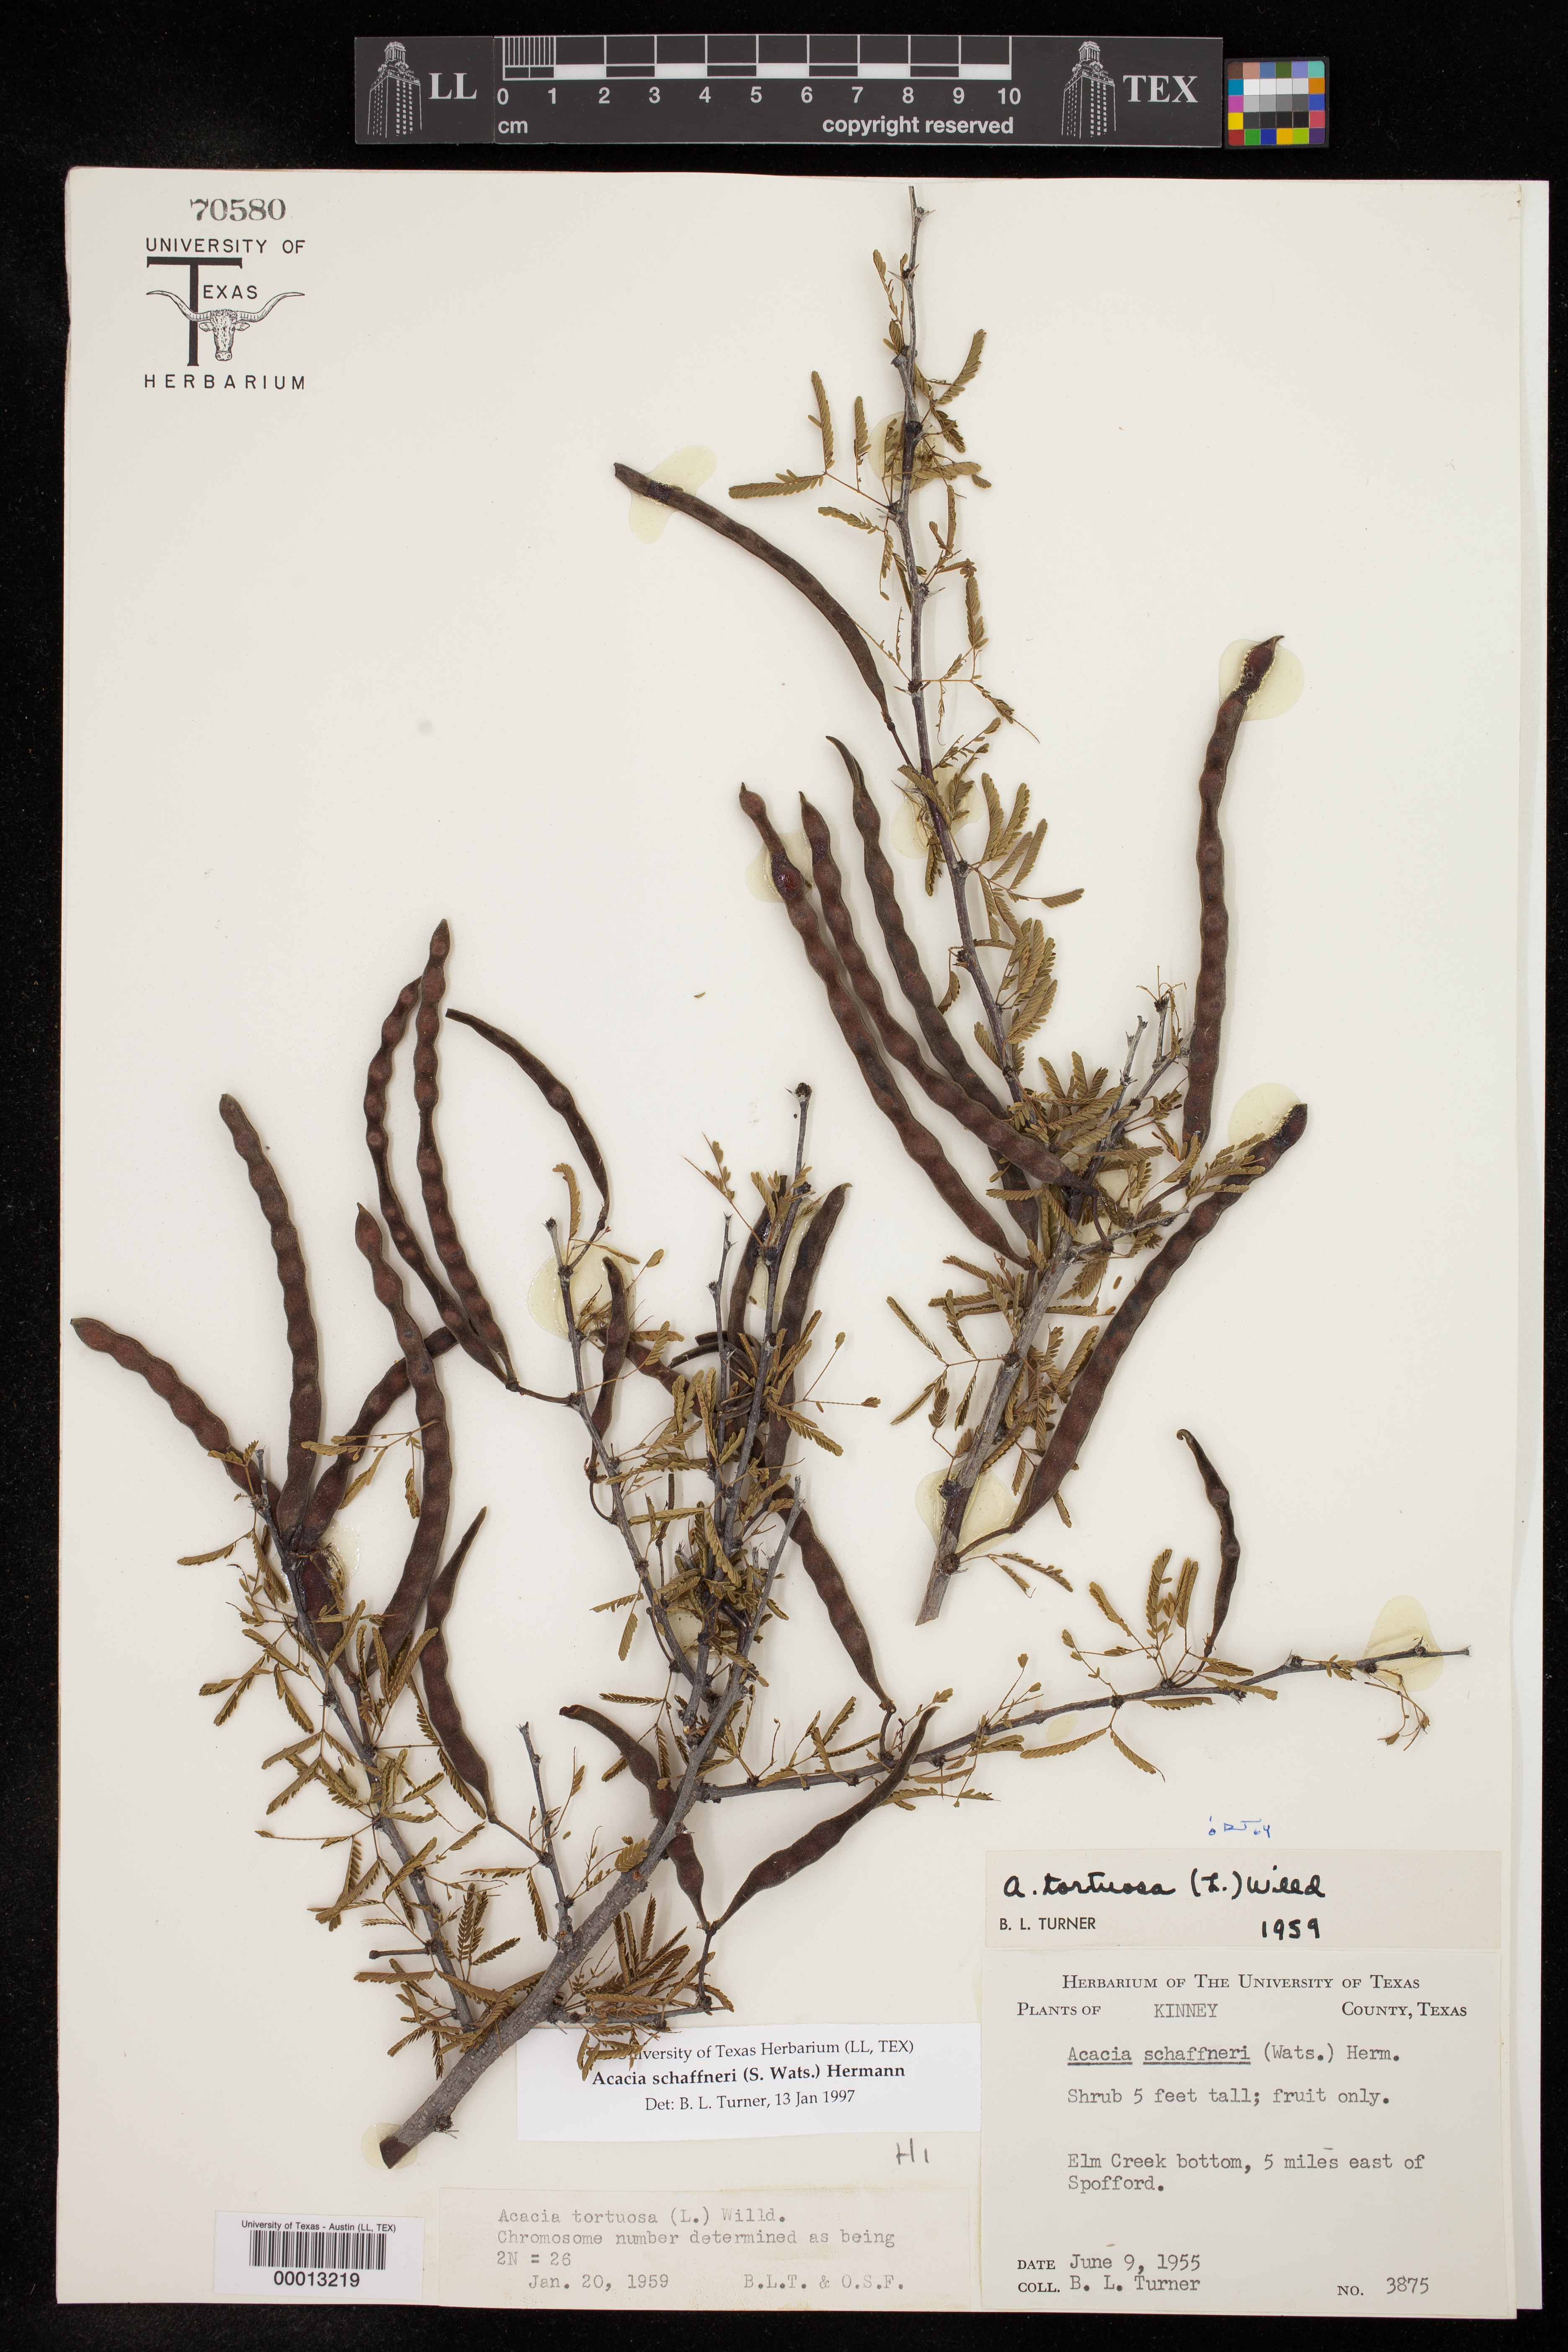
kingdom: Plantae
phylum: Tracheophyta
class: Magnoliopsida
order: Fabales
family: Fabaceae
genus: Vachellia
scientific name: Vachellia schaffneri
